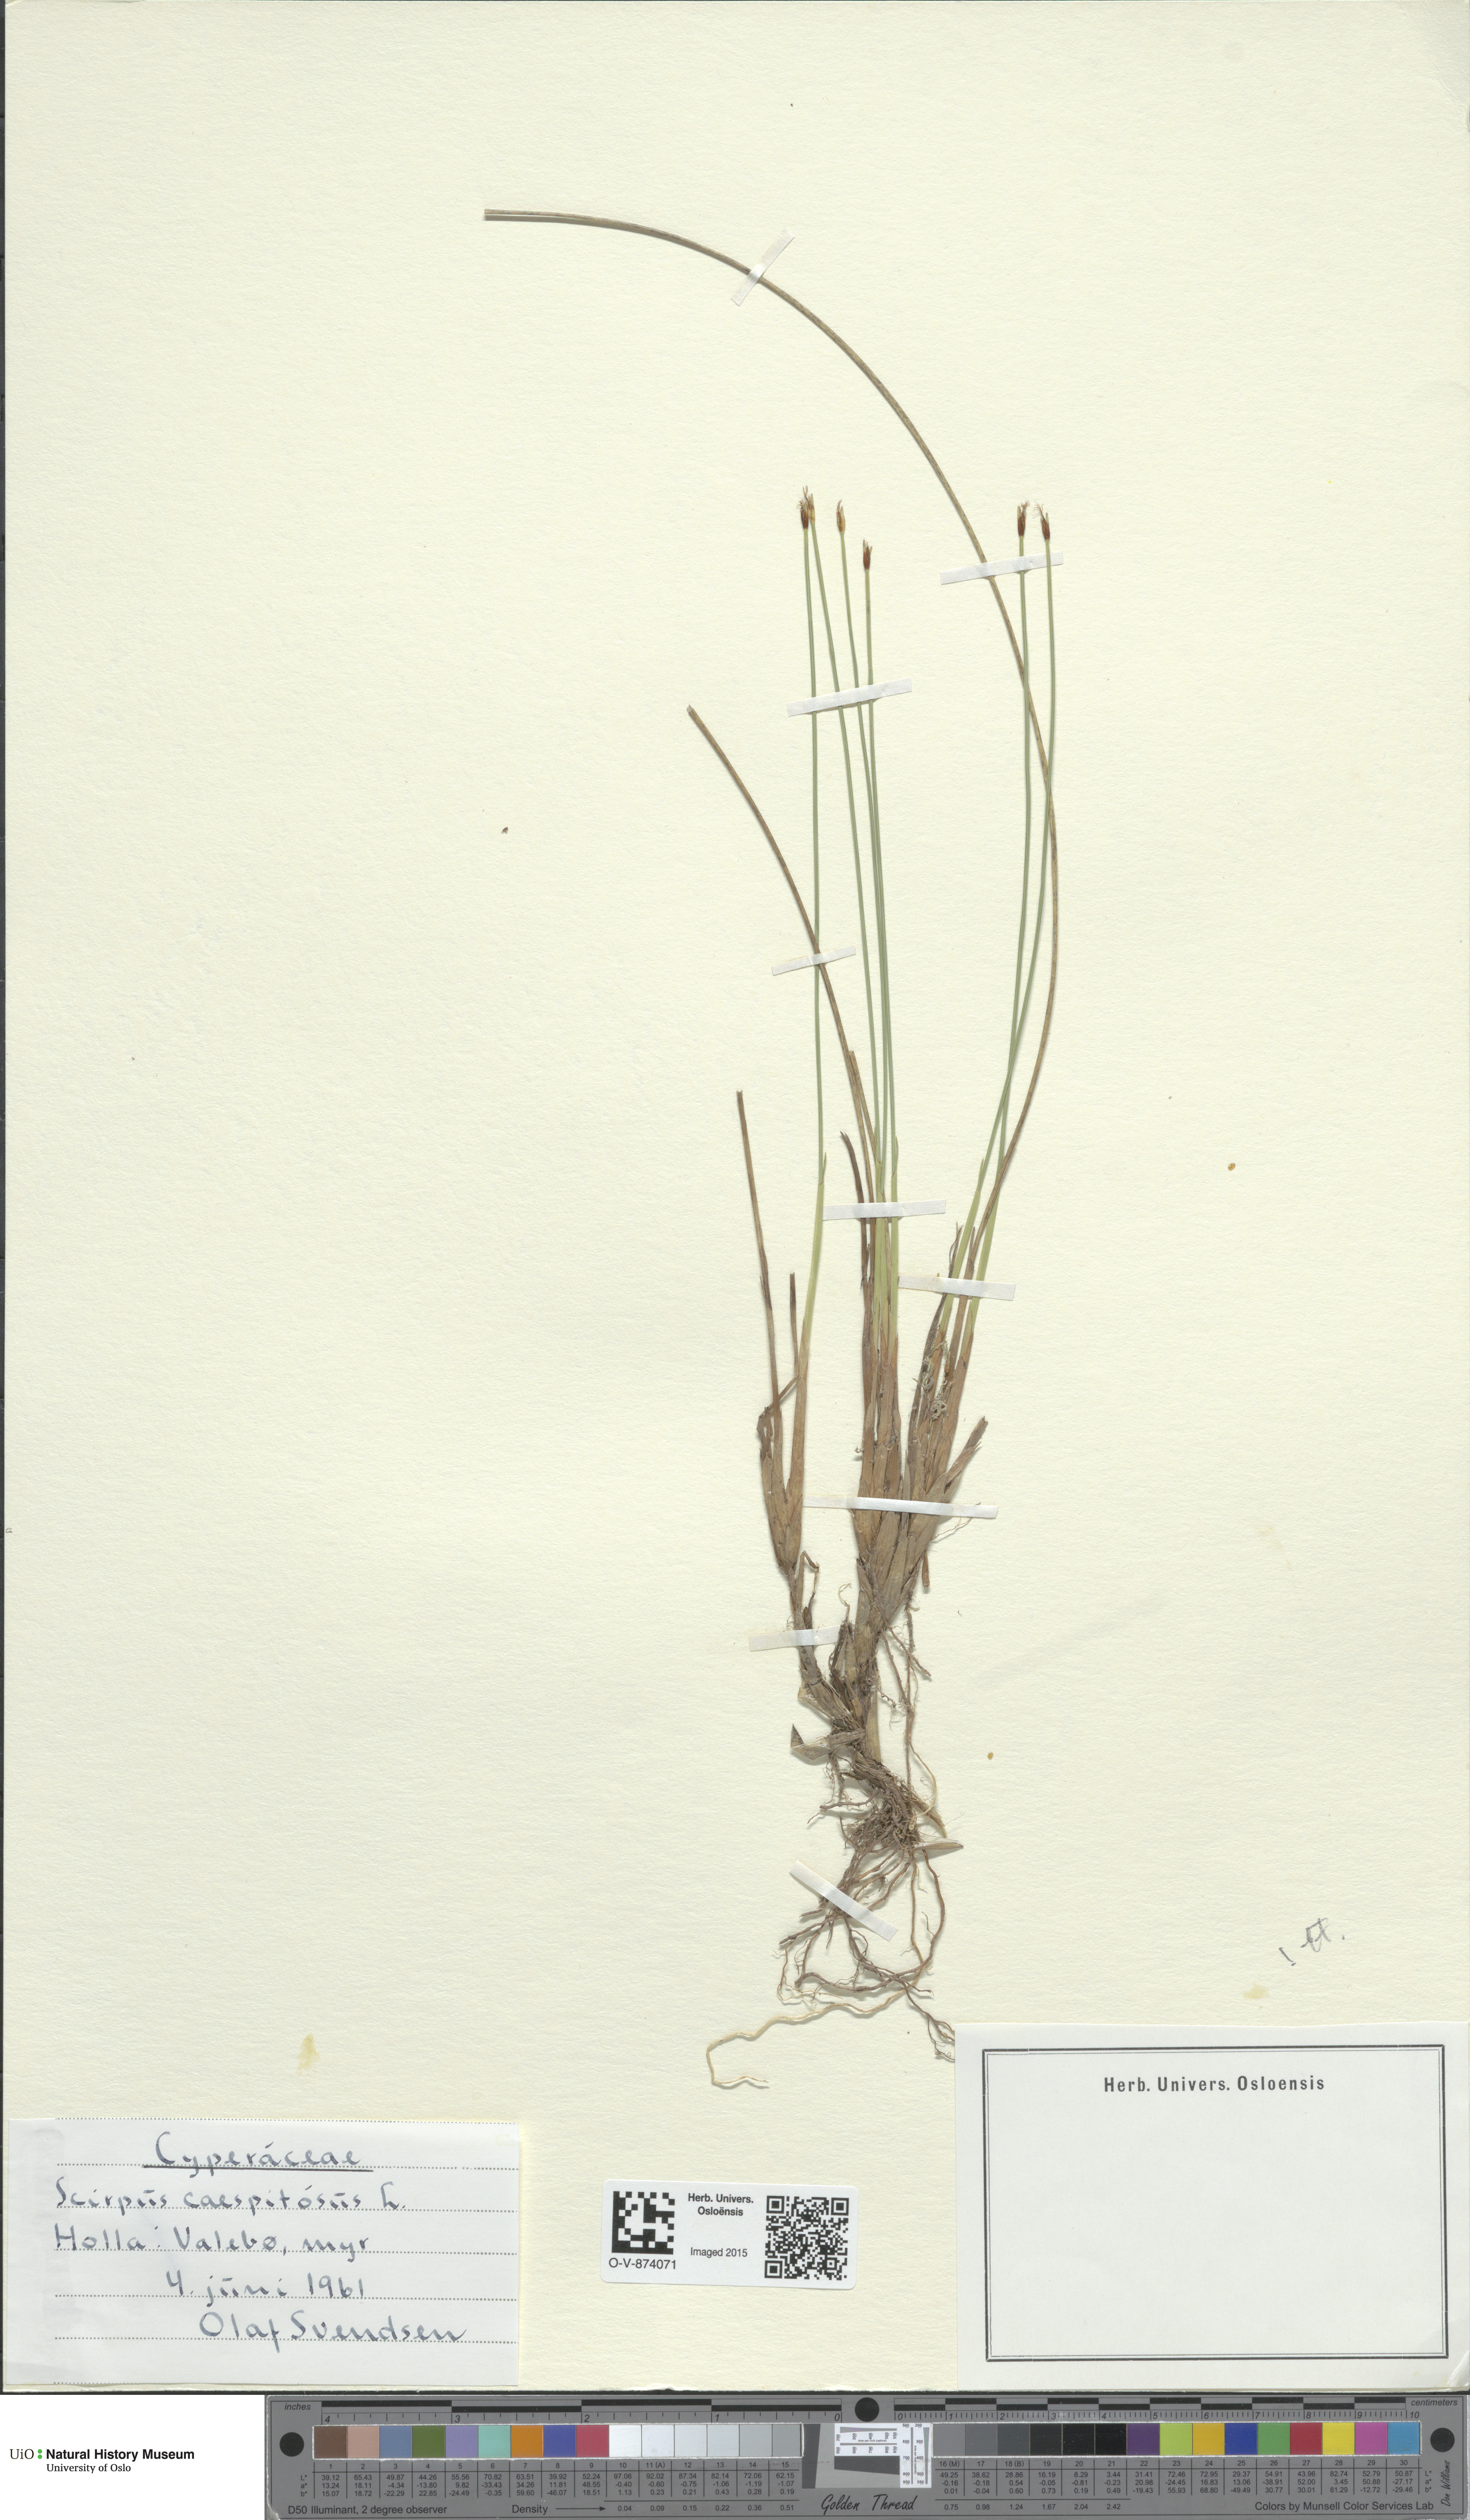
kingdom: Plantae
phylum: Tracheophyta
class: Liliopsida
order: Poales
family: Cyperaceae
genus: Trichophorum
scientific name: Trichophorum cespitosum
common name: Cespitose bulrush
